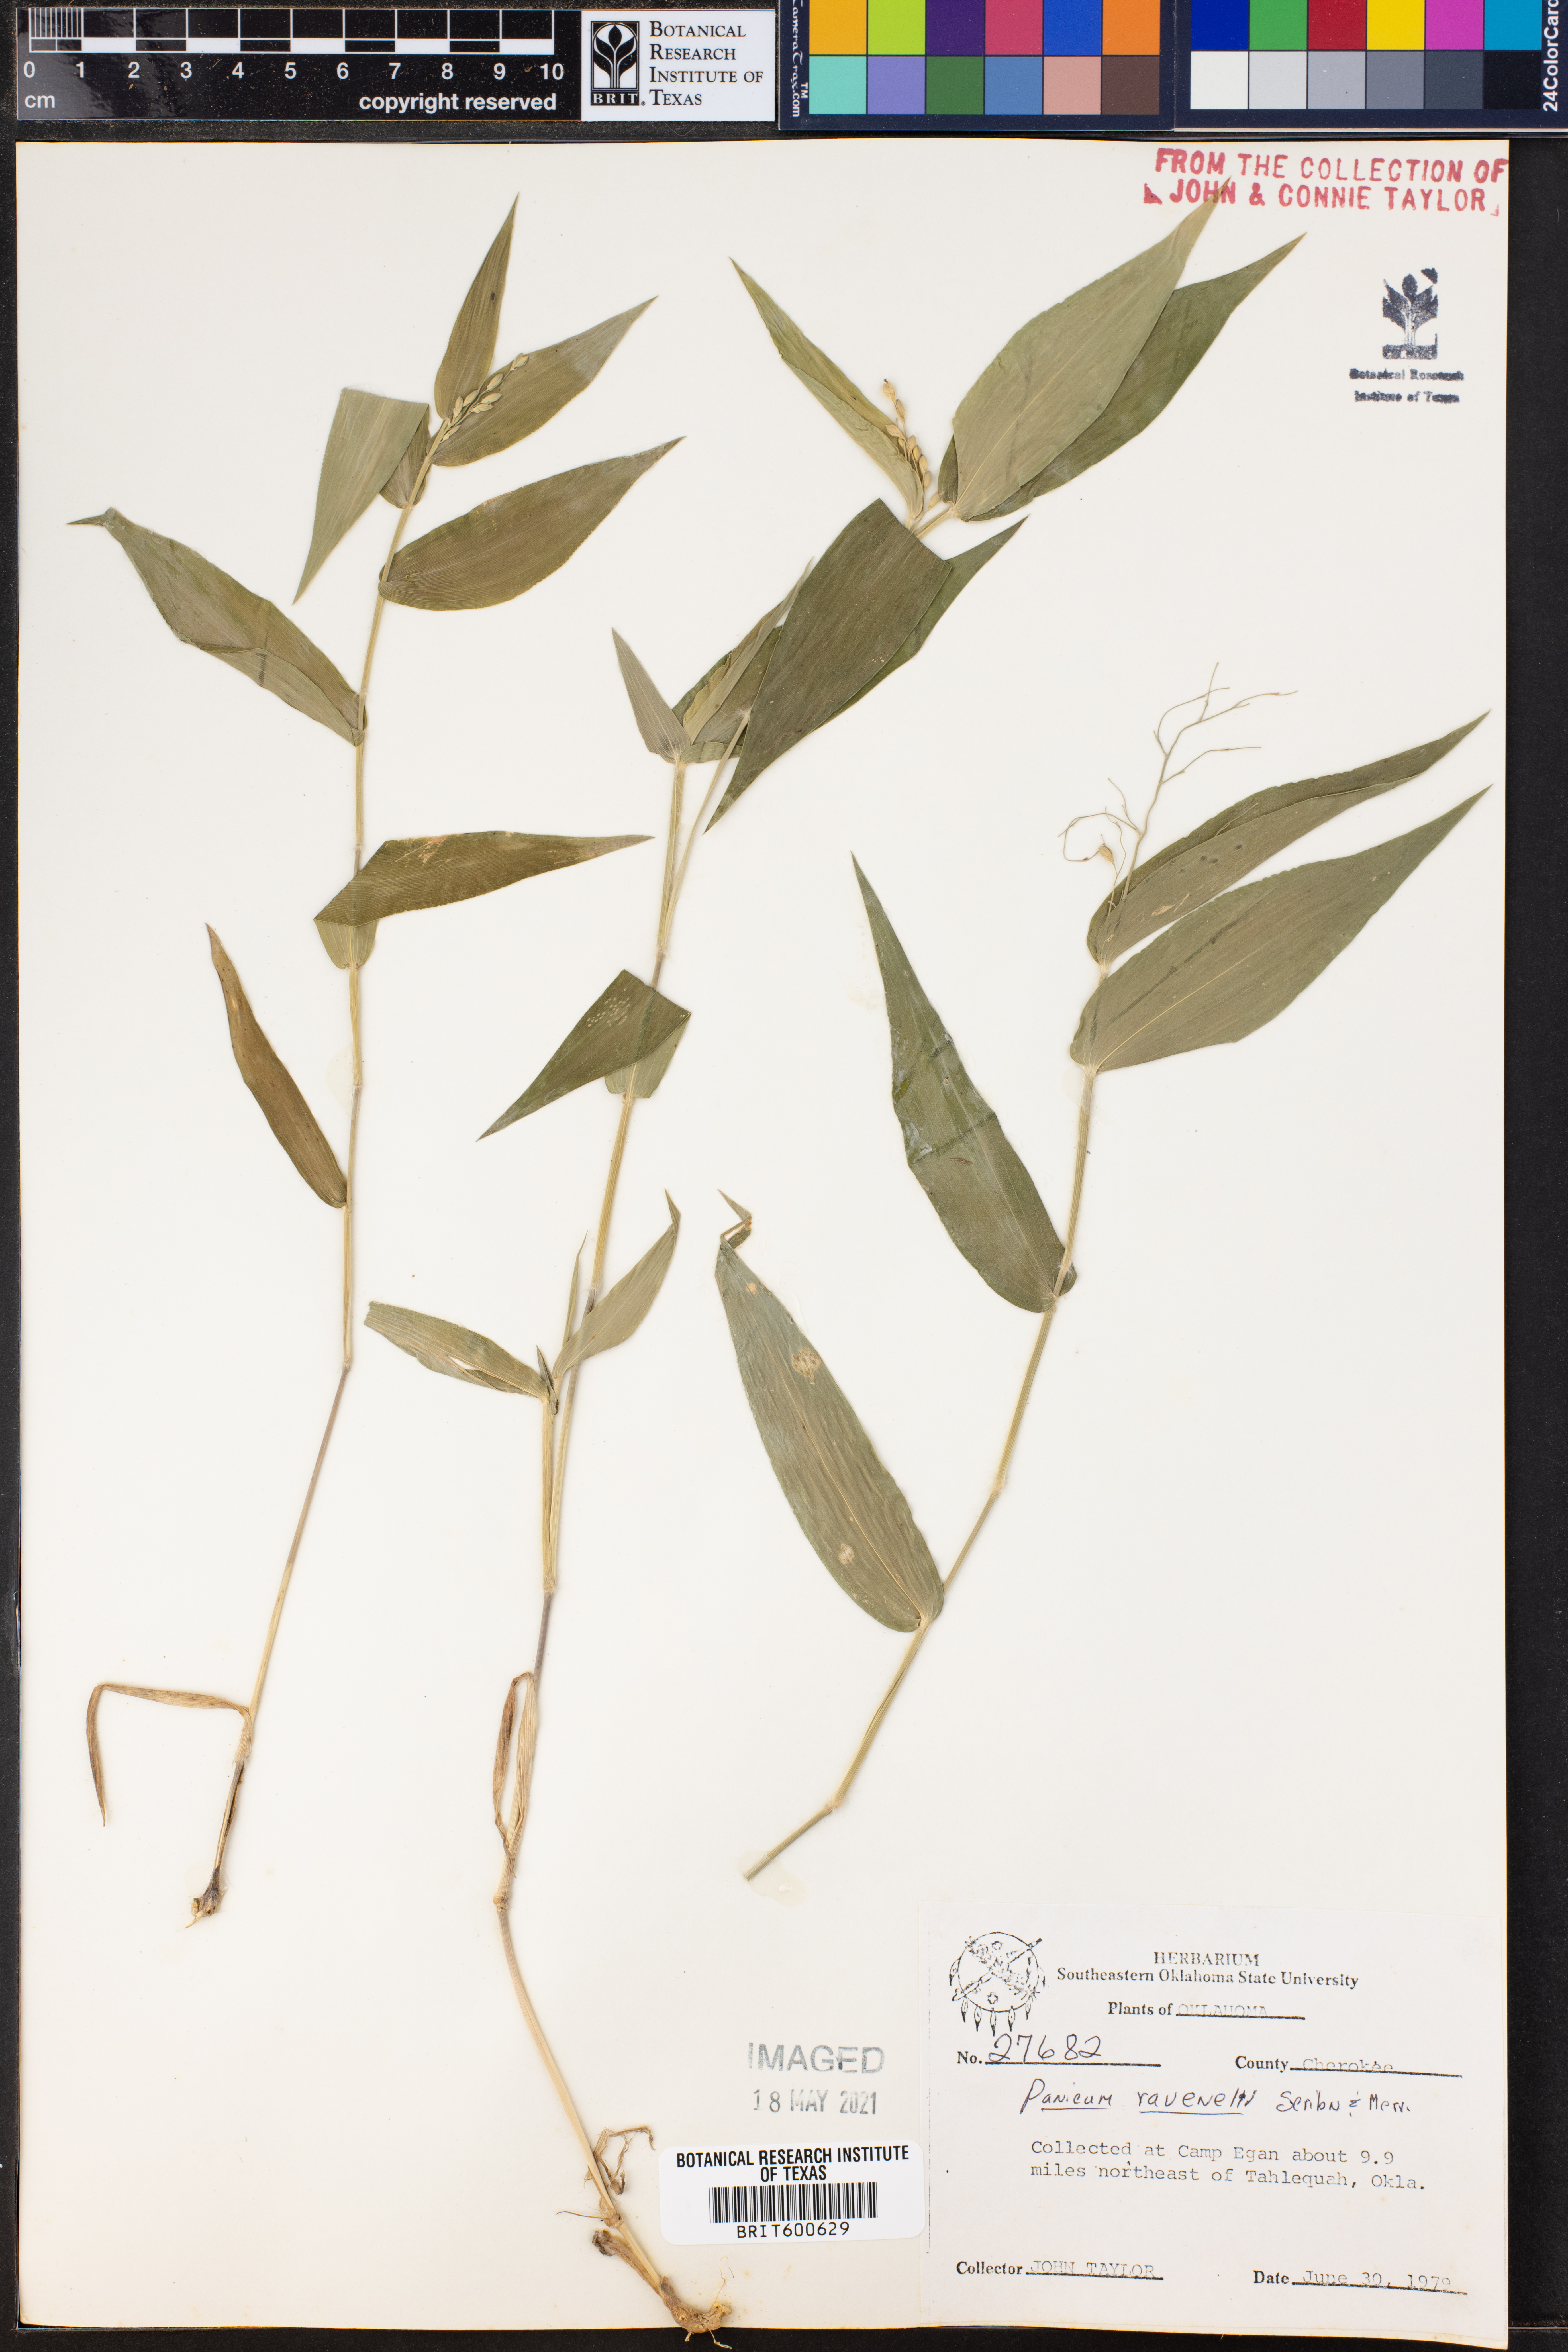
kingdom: Plantae
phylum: Tracheophyta
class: Liliopsida
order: Poales
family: Poaceae
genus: Dichanthelium
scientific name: Dichanthelium ravenelii
